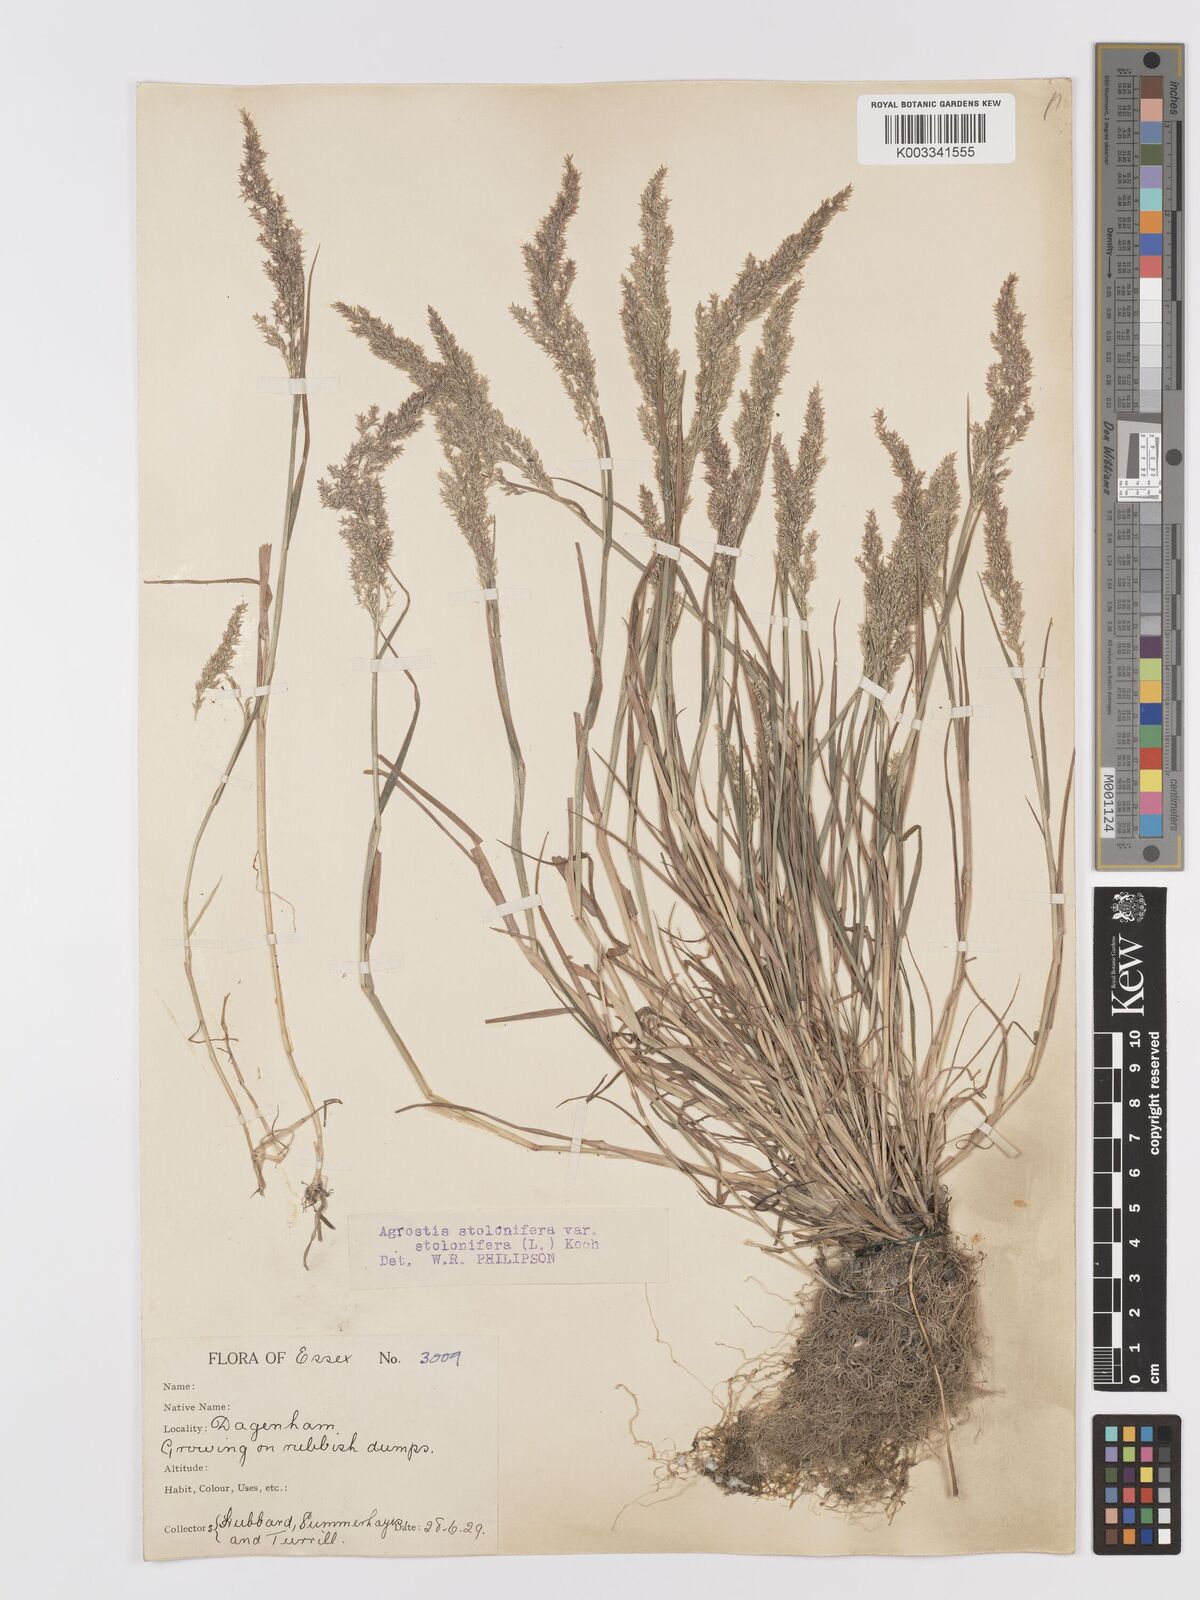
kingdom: Plantae
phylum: Tracheophyta
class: Liliopsida
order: Poales
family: Poaceae
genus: Agrostis
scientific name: Agrostis stolonifera
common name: Creeping bentgrass
